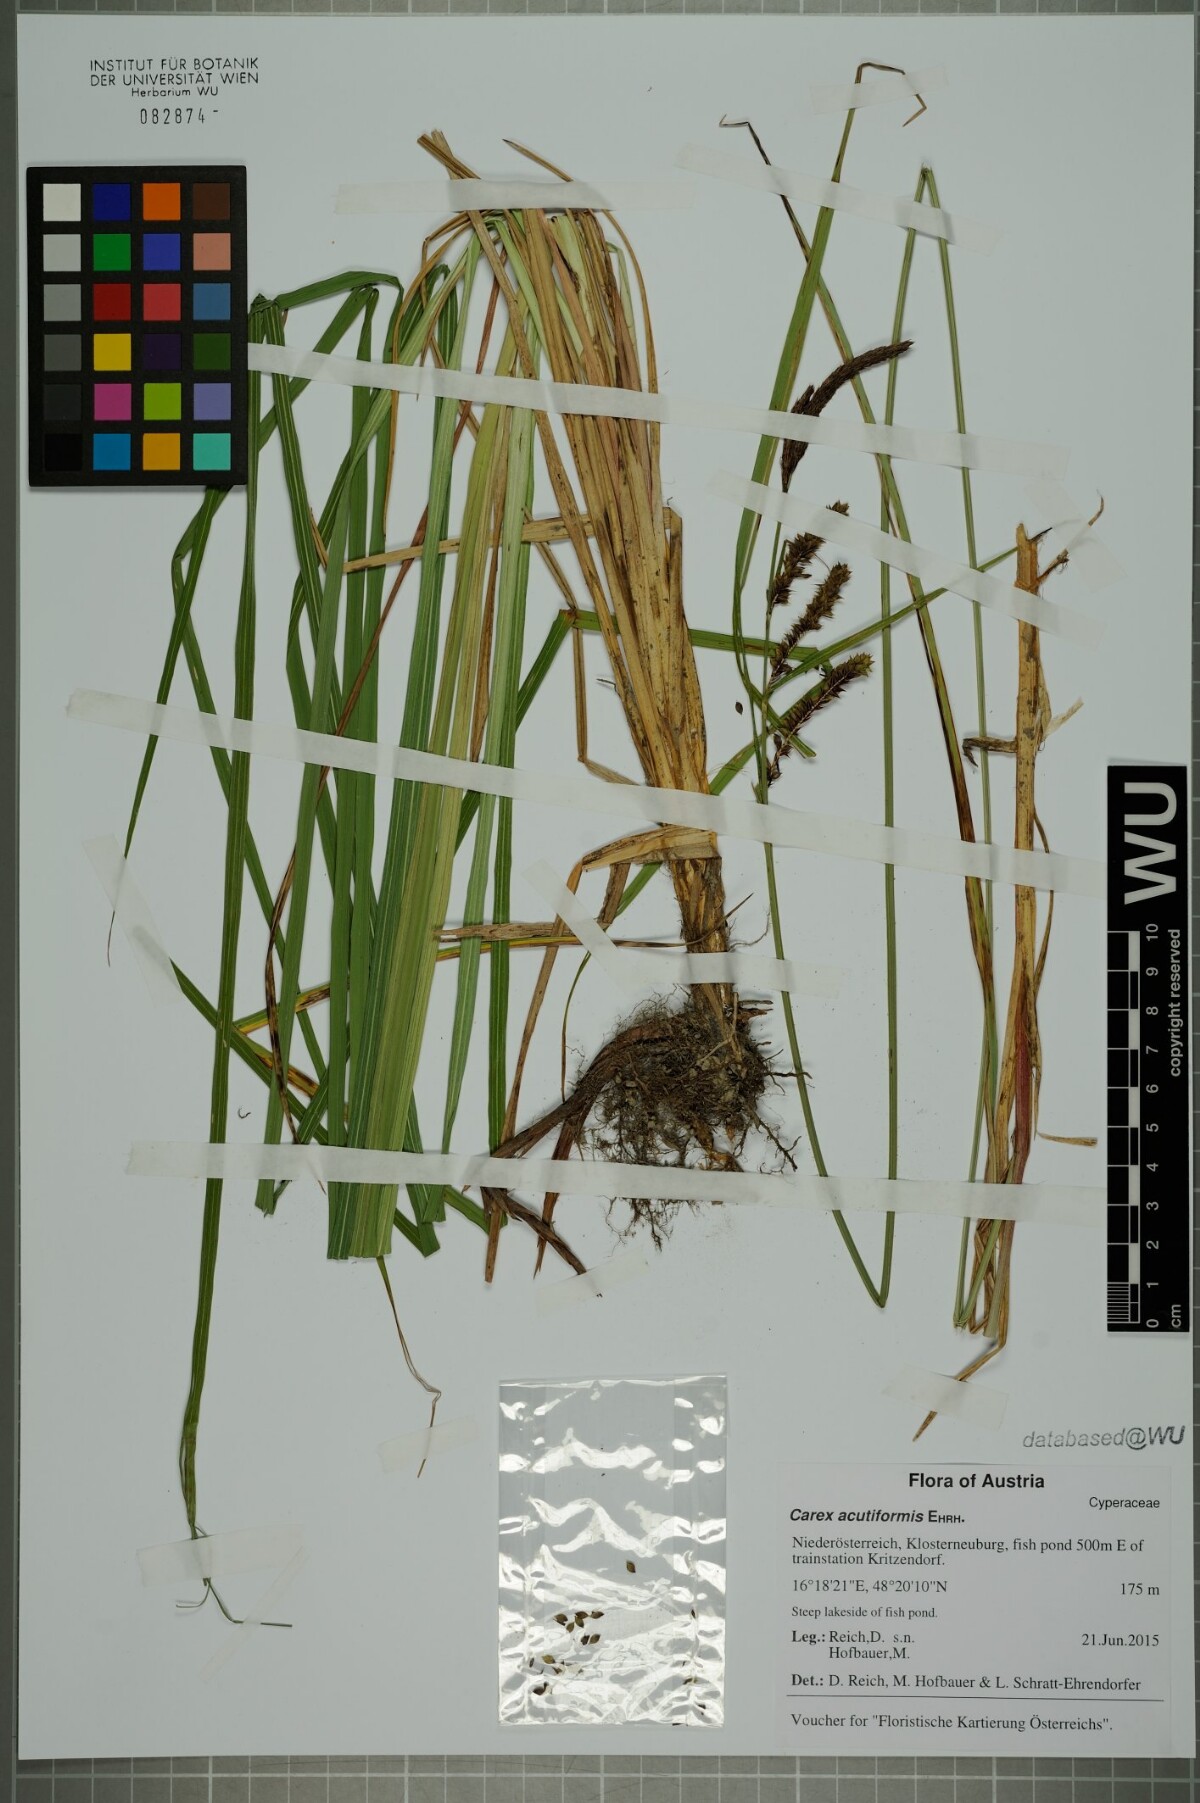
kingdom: Plantae
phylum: Tracheophyta
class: Liliopsida
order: Poales
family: Cyperaceae
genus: Carex
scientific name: Carex acutiformis
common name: Lesser pond-sedge
